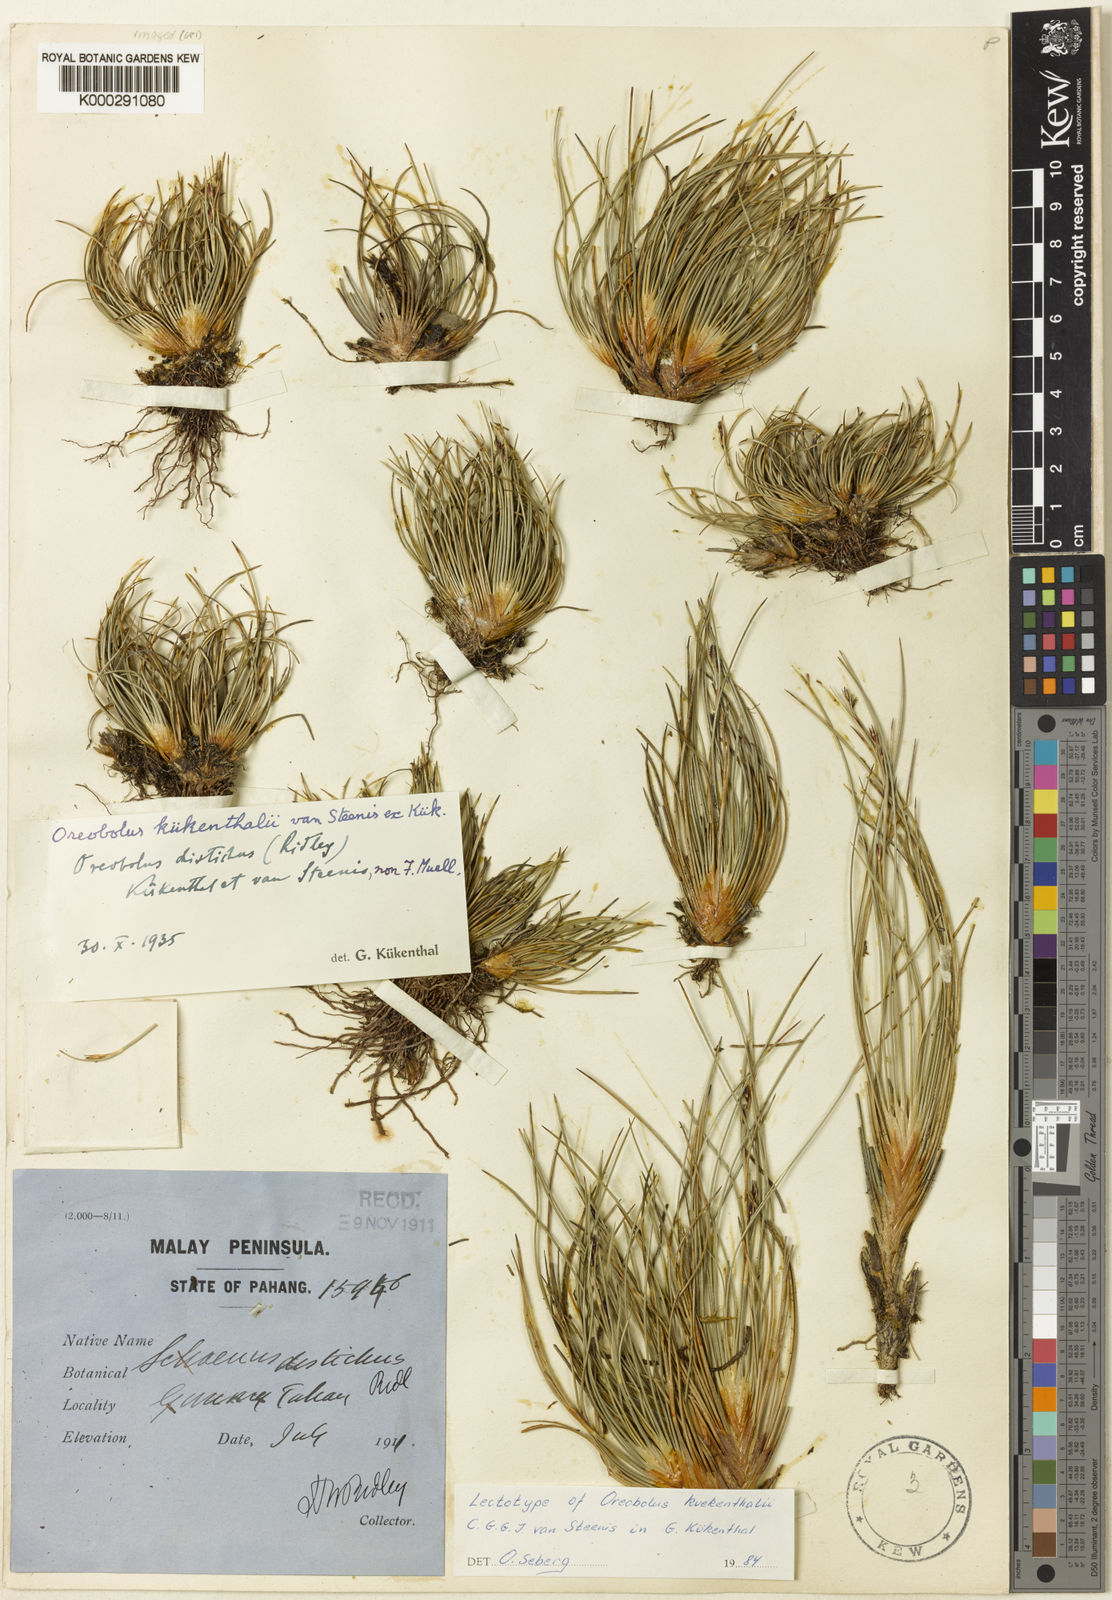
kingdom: Plantae
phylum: Tracheophyta
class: Liliopsida
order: Poales
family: Cyperaceae
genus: Oreobolus
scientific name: Oreobolus
